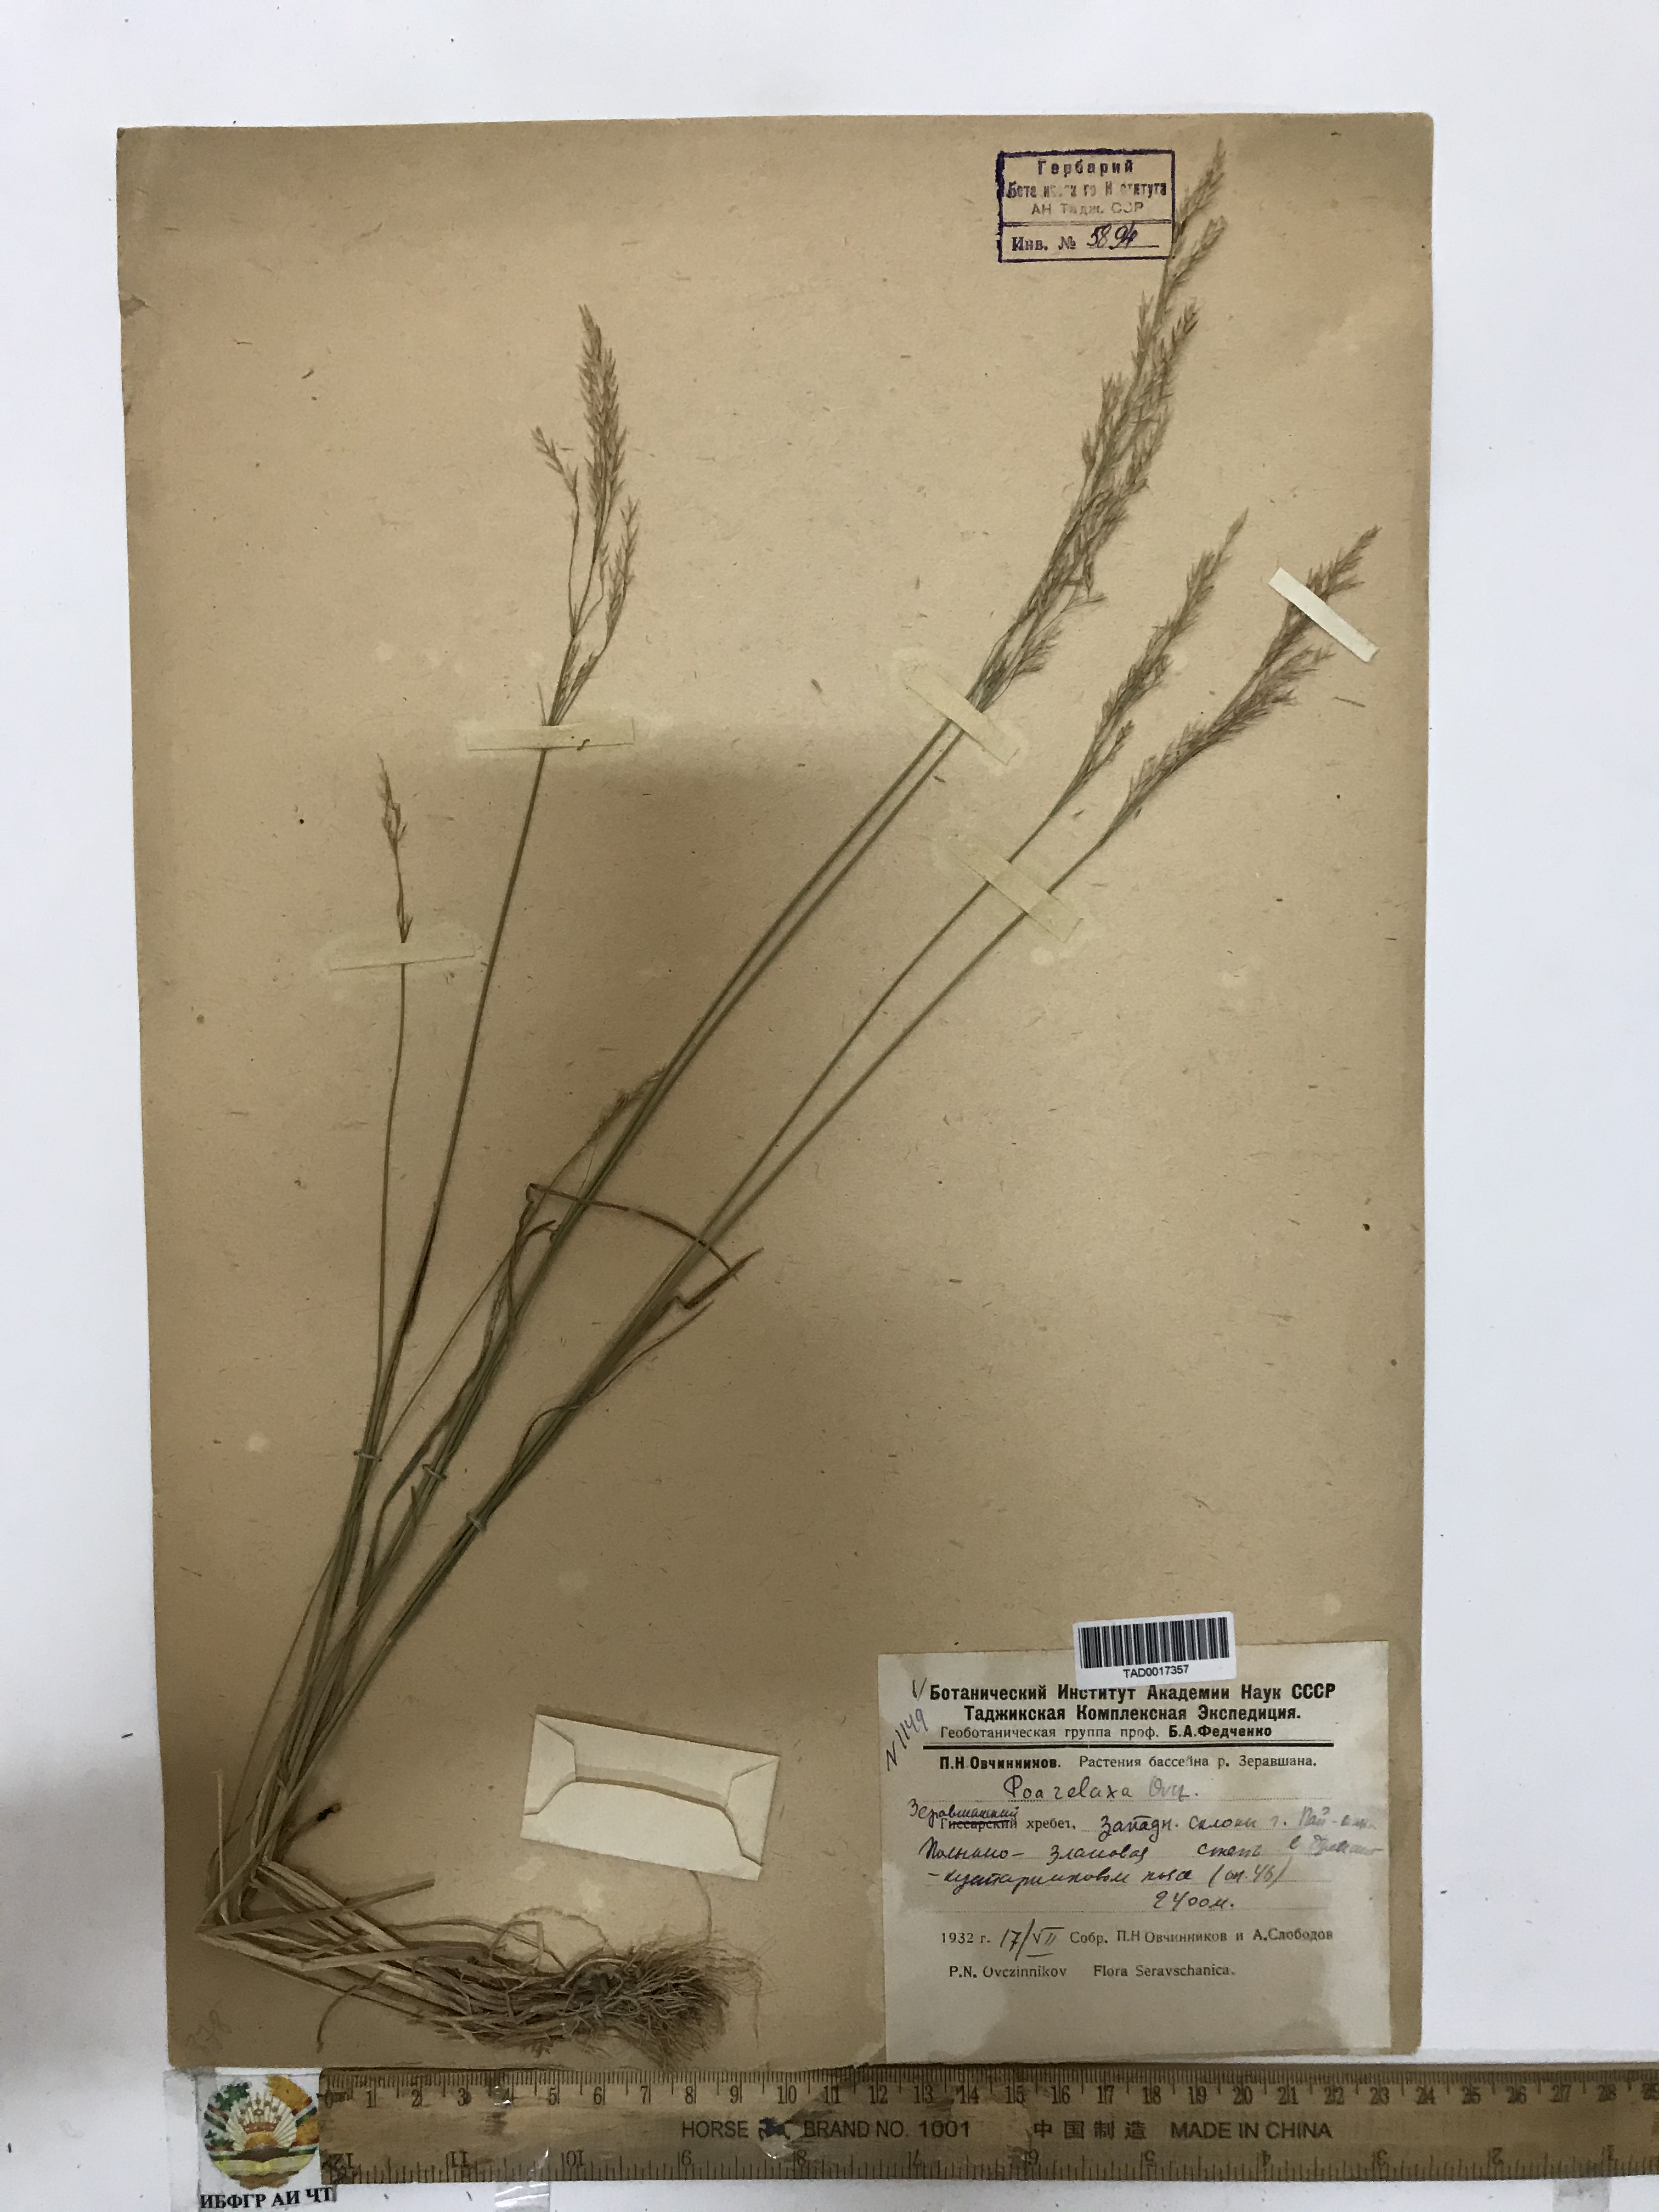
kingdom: Plantae
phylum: Tracheophyta
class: Liliopsida
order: Poales
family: Poaceae
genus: Poa
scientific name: Poa reflexa
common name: Nodding bluegrass
